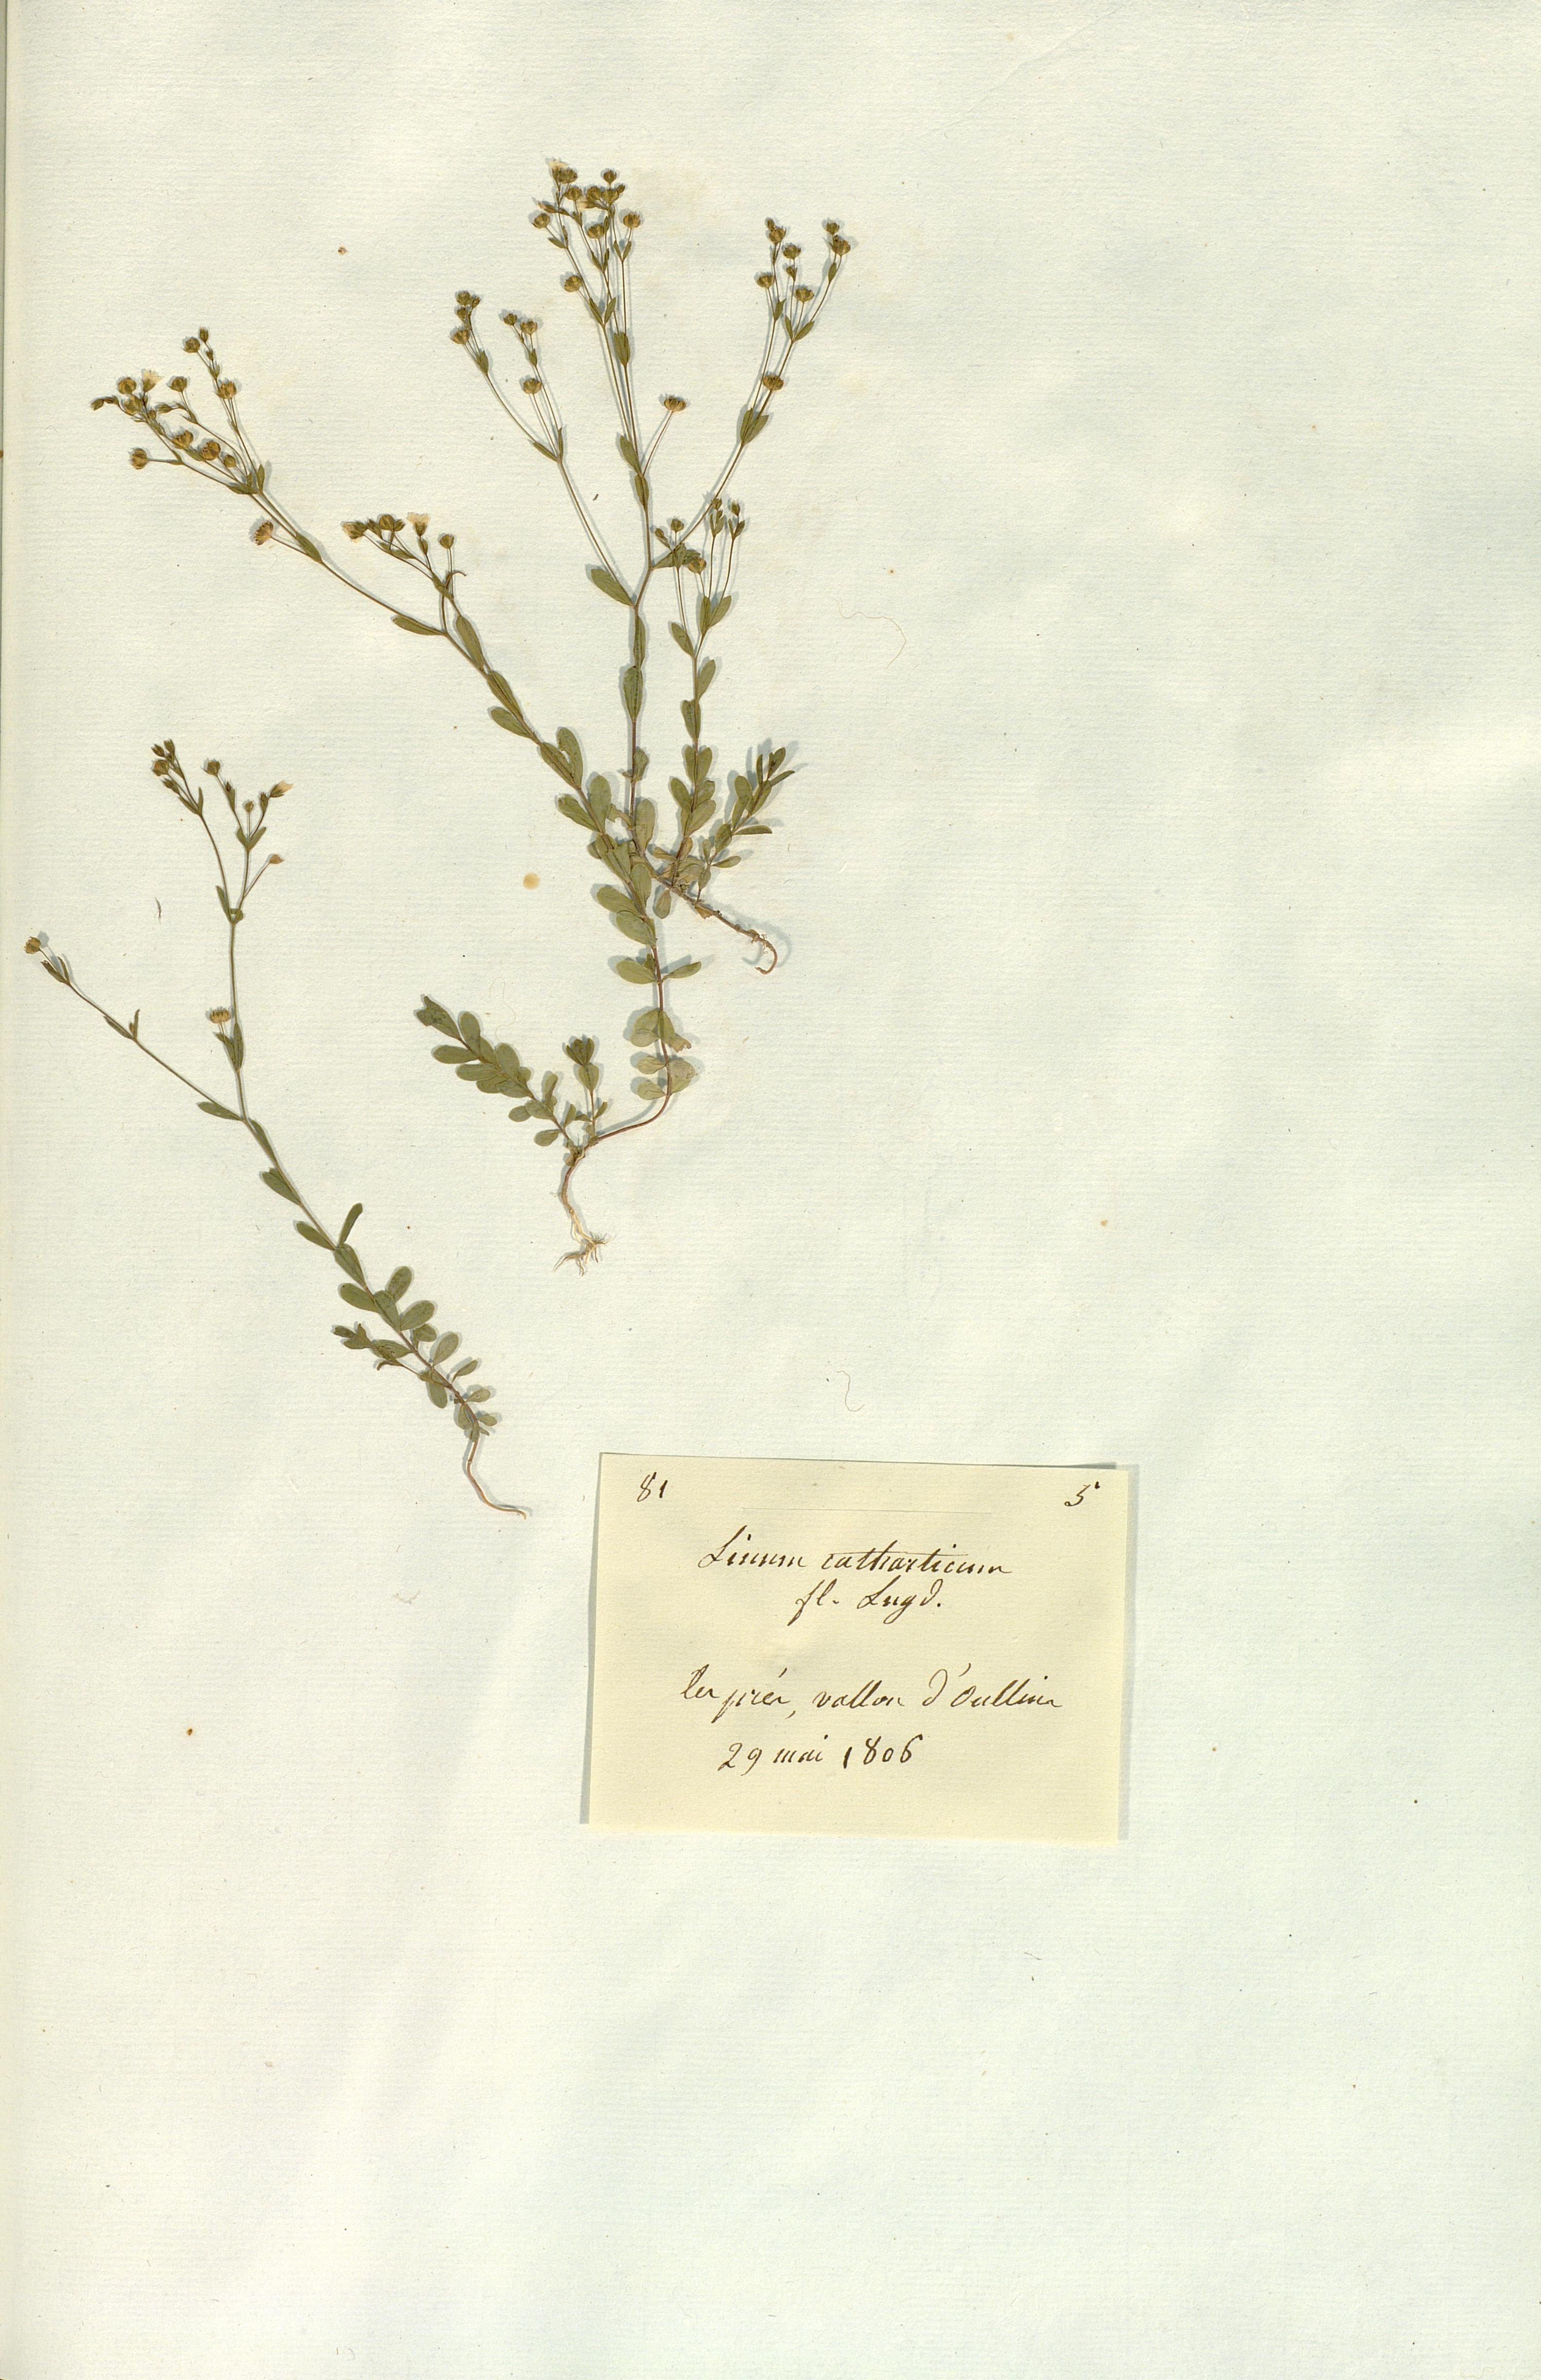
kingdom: Plantae
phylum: Tracheophyta
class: Magnoliopsida
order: Malpighiales
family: Linaceae
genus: Linum
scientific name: Linum catharticum
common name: Fairy flax
